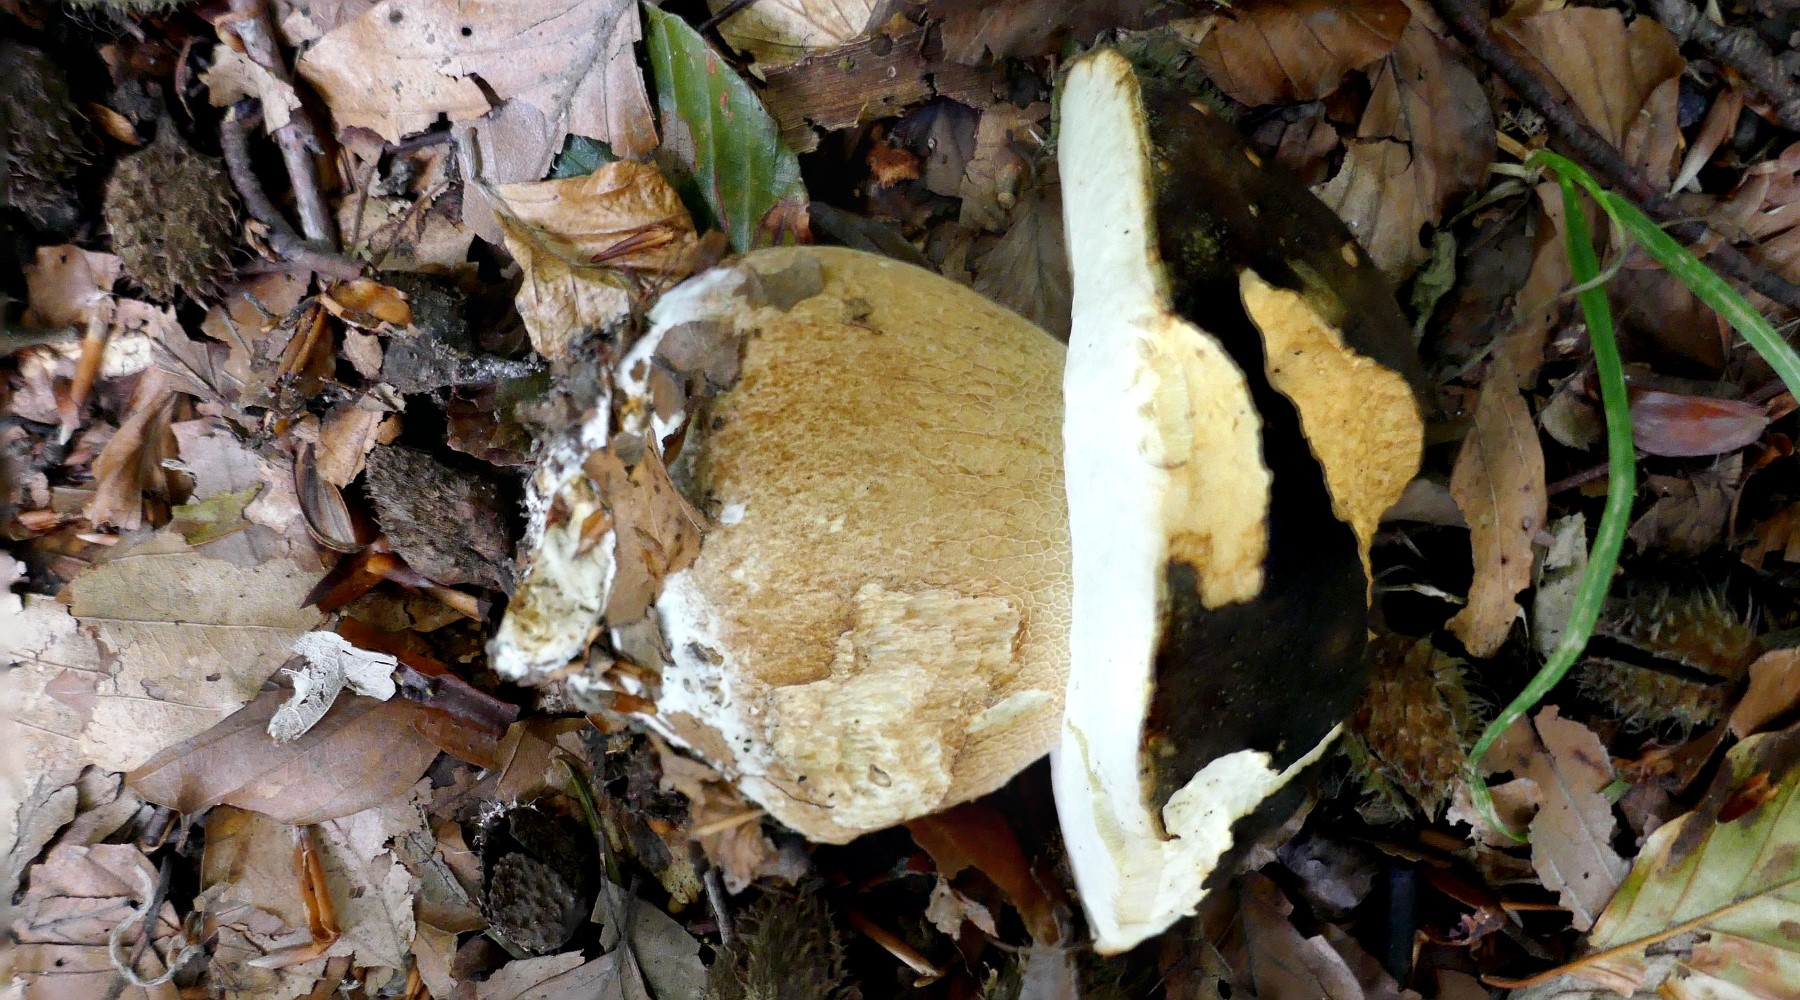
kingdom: Fungi
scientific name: Fungi
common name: bronze-rørhat
